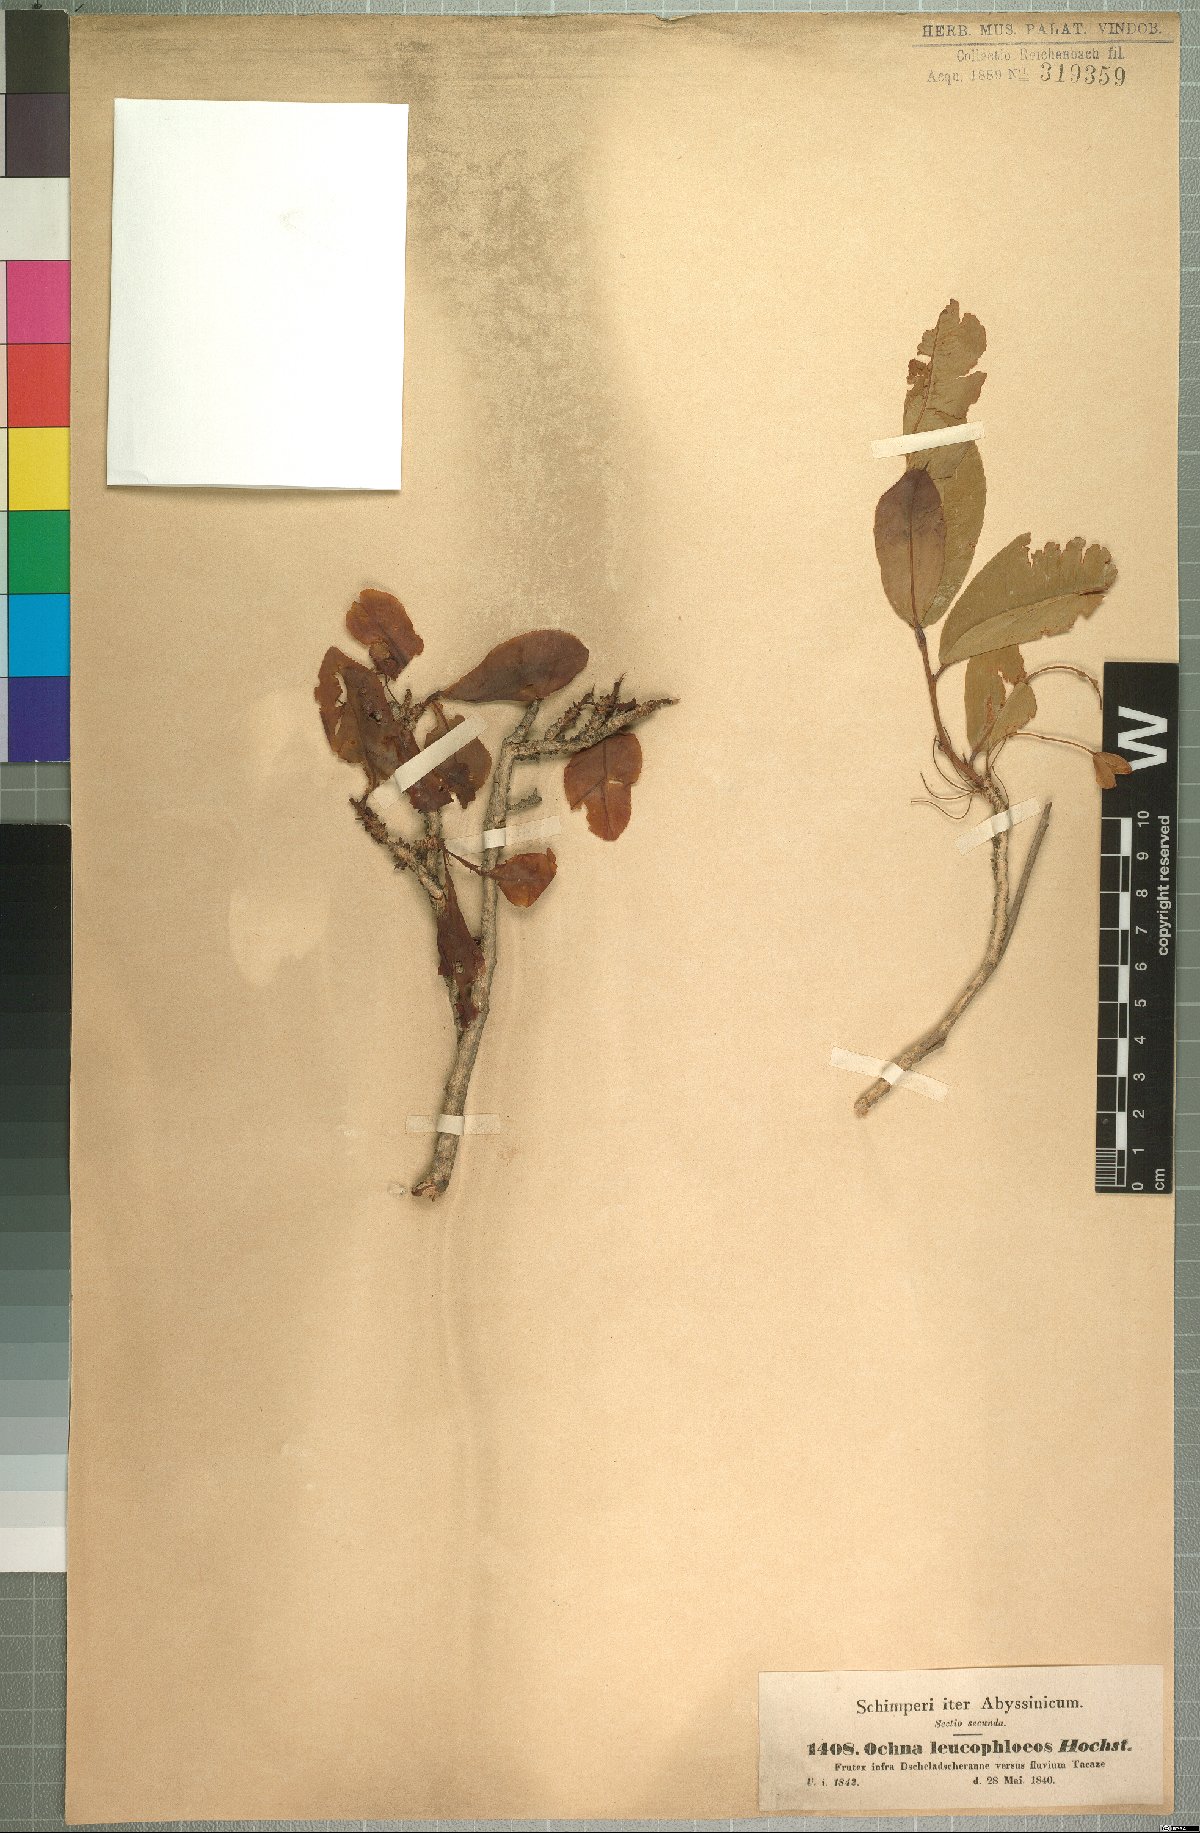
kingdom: Plantae
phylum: Tracheophyta
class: Magnoliopsida
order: Malpighiales
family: Ochnaceae
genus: Ochna
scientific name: Ochna leucophloeos
